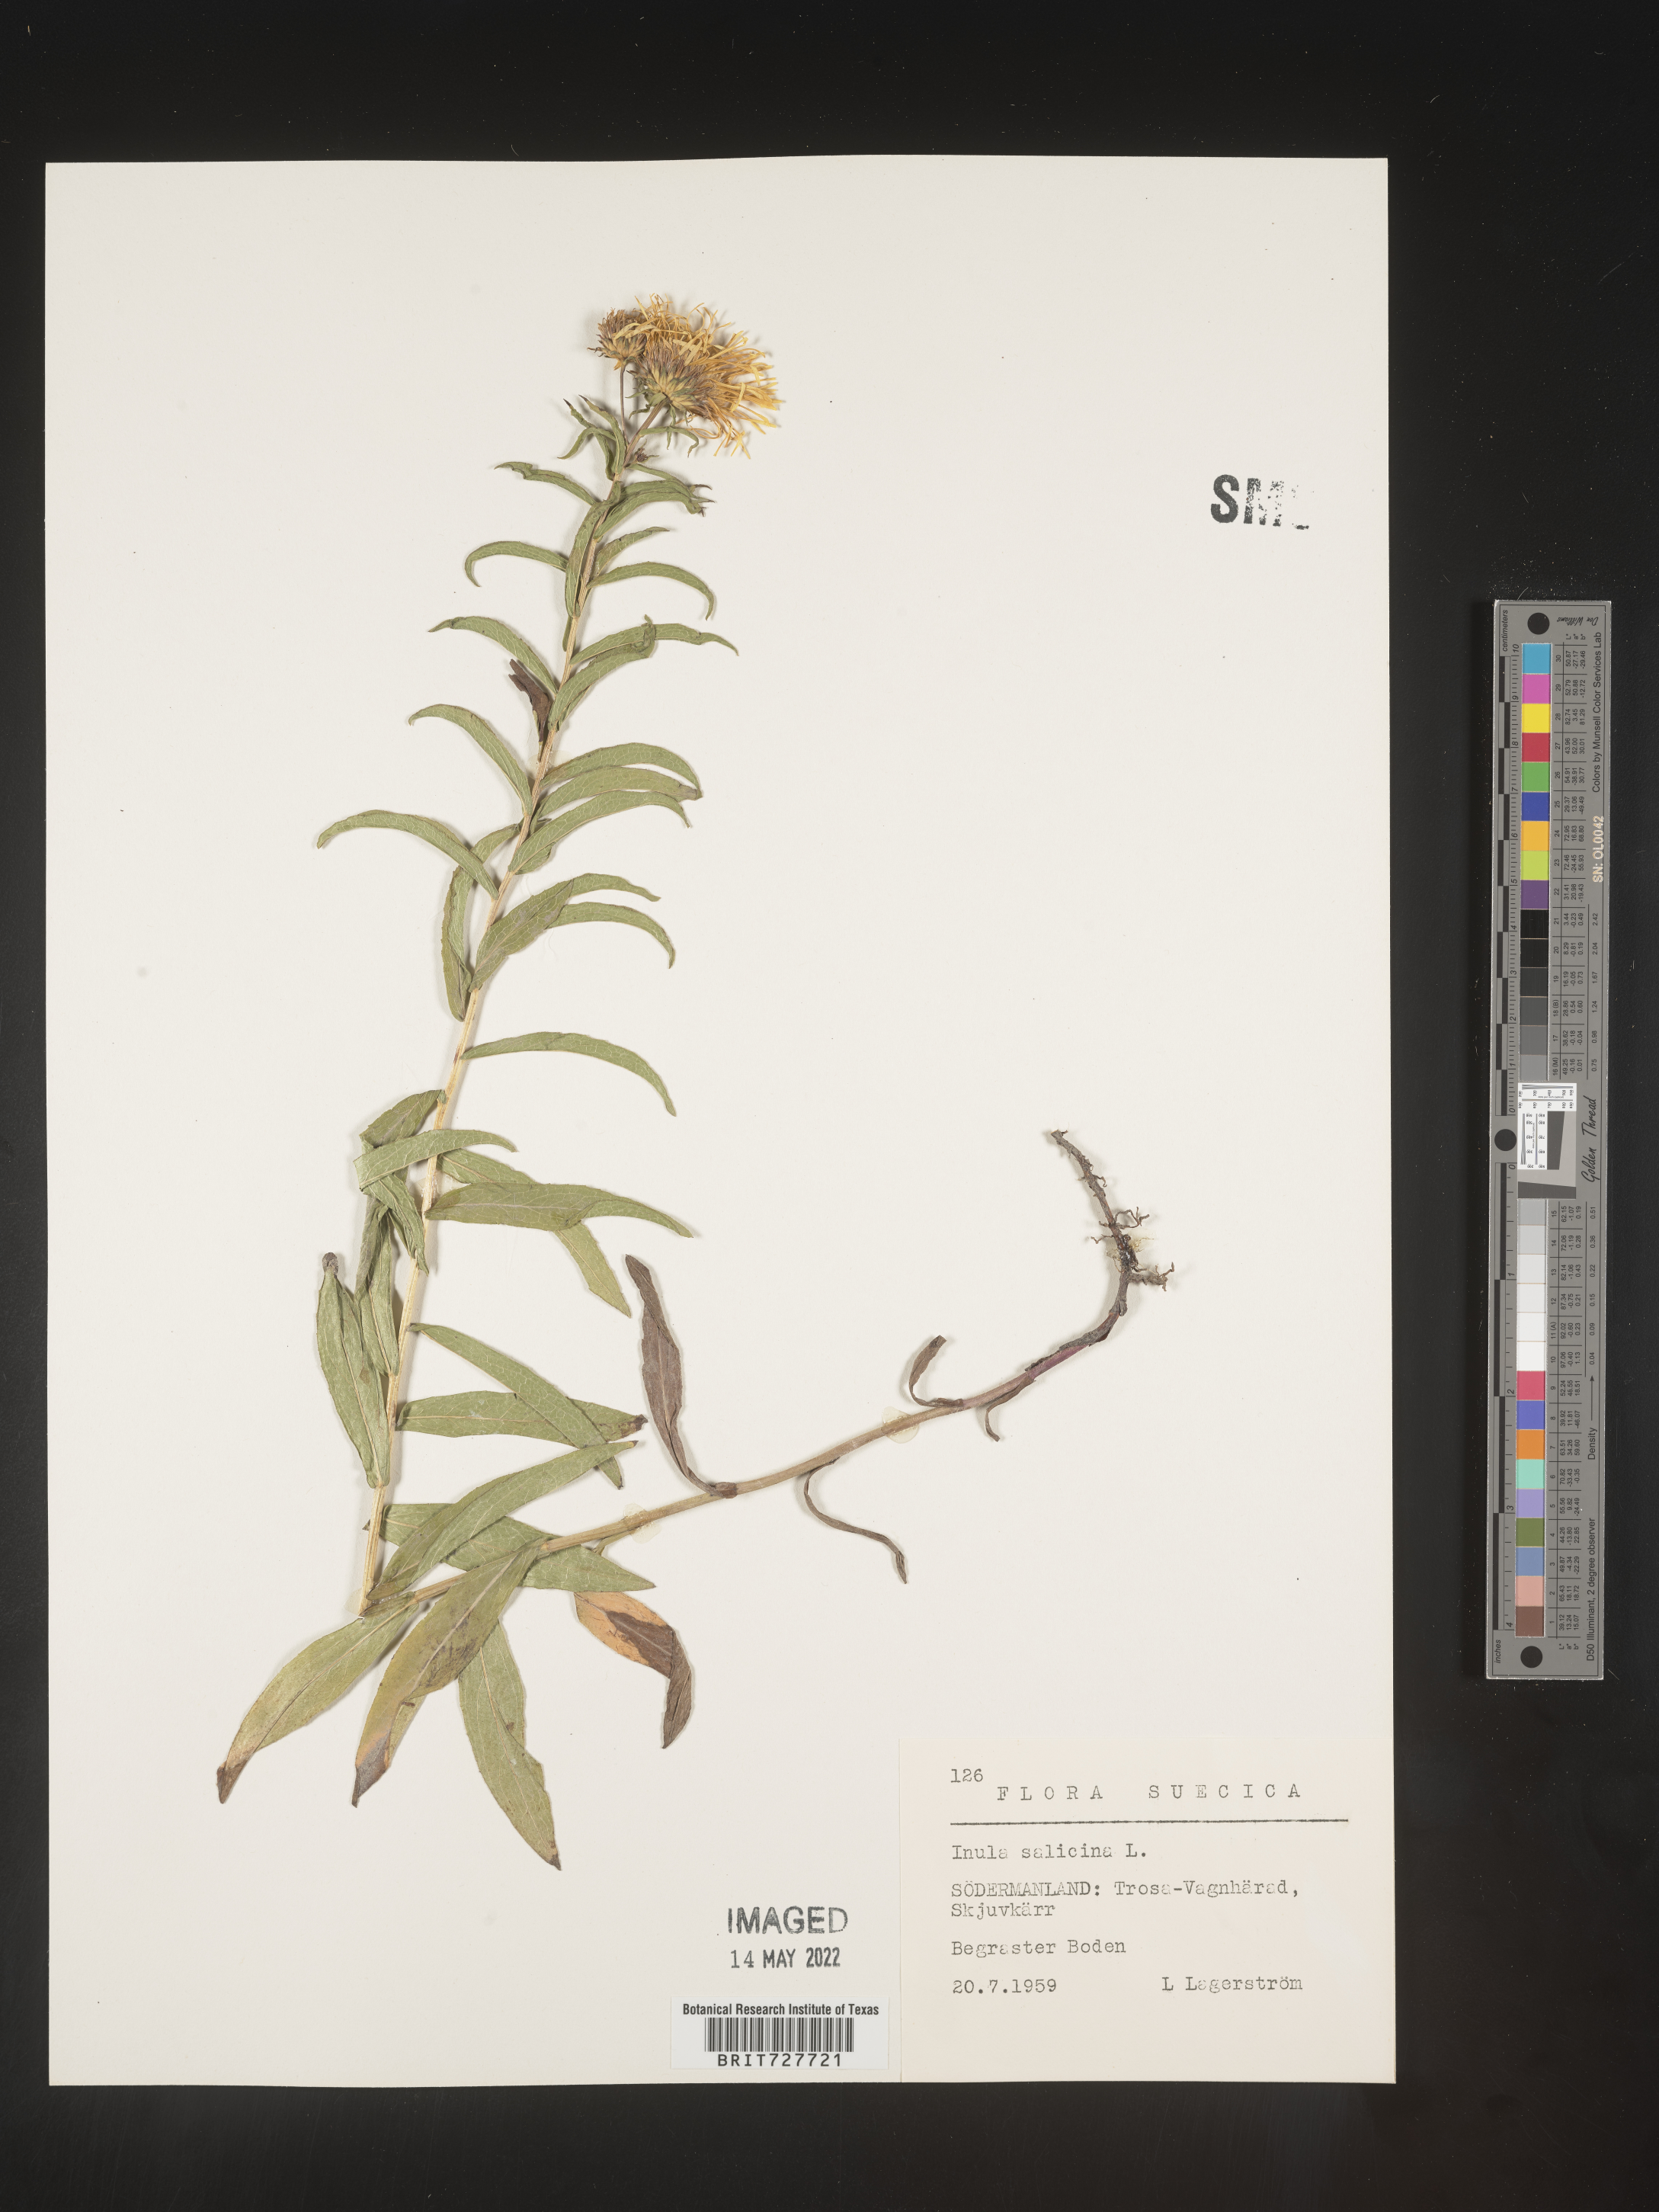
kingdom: Plantae
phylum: Tracheophyta
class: Magnoliopsida
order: Asterales
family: Asteraceae
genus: Inula
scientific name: Inula
